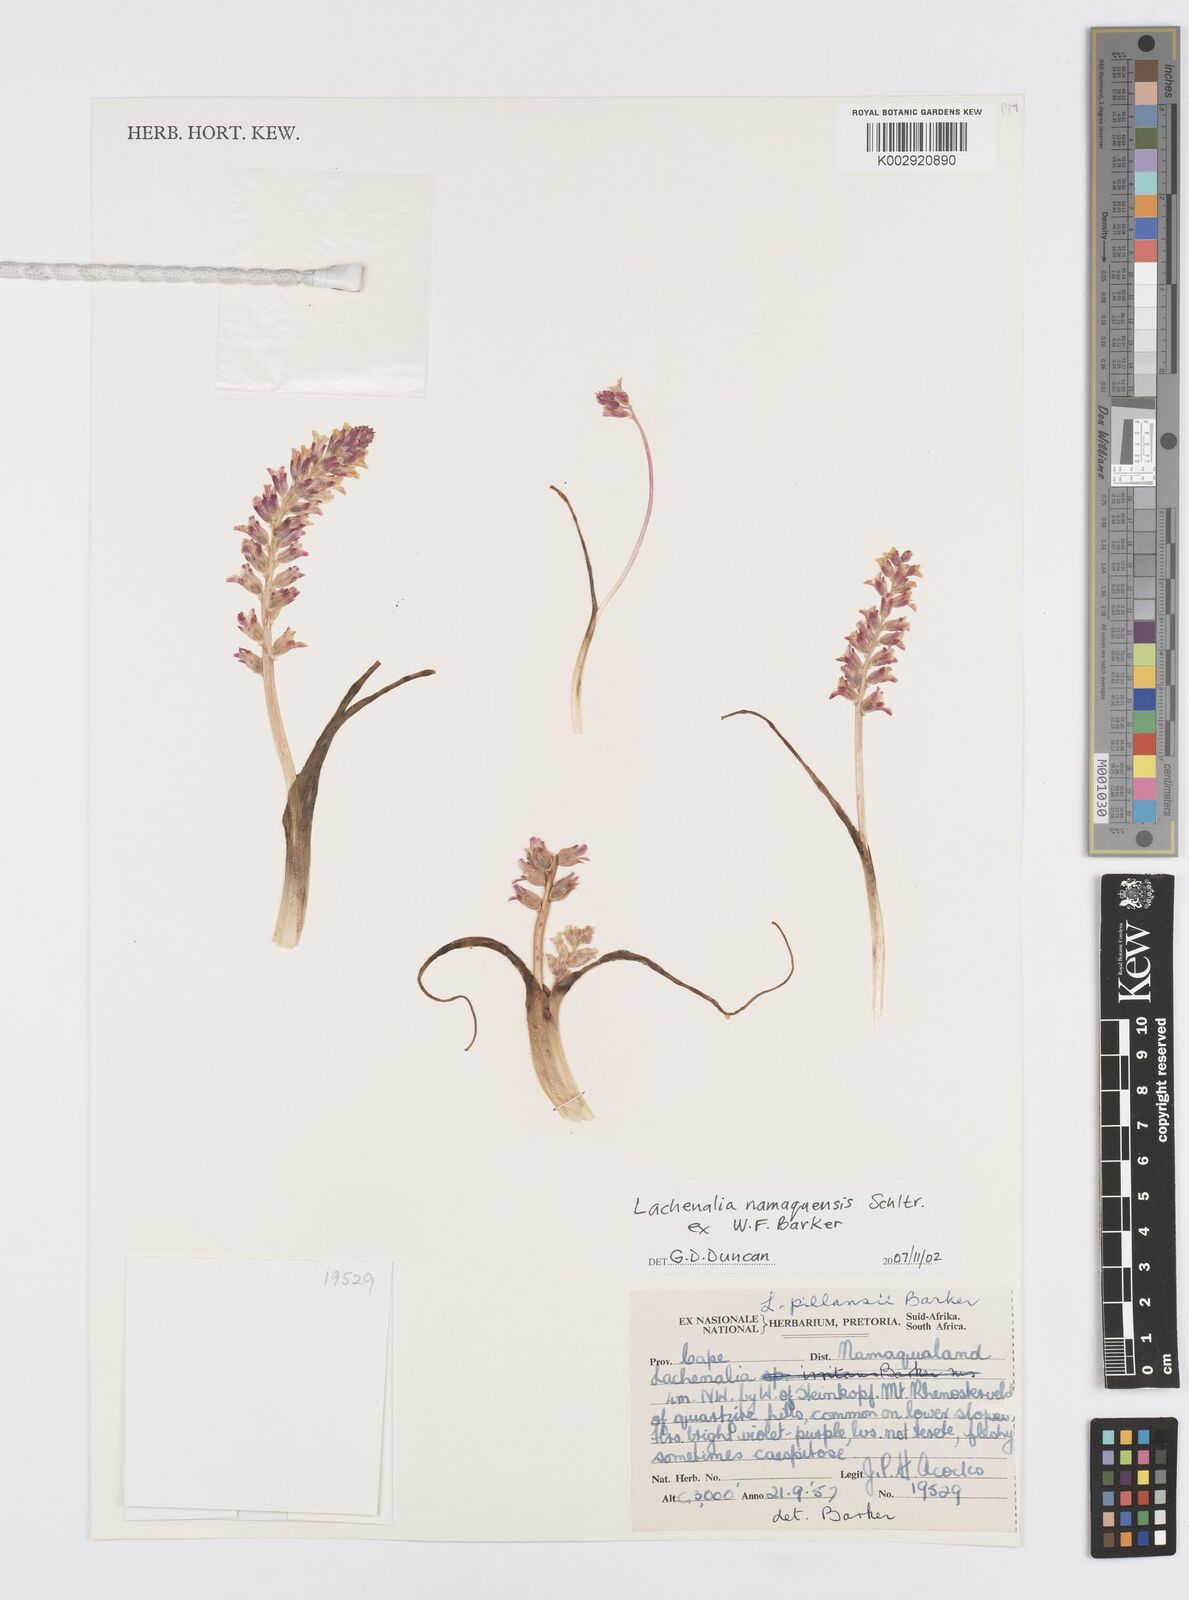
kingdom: Plantae
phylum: Tracheophyta
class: Liliopsida
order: Asparagales
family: Asparagaceae
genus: Lachenalia
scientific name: Lachenalia
